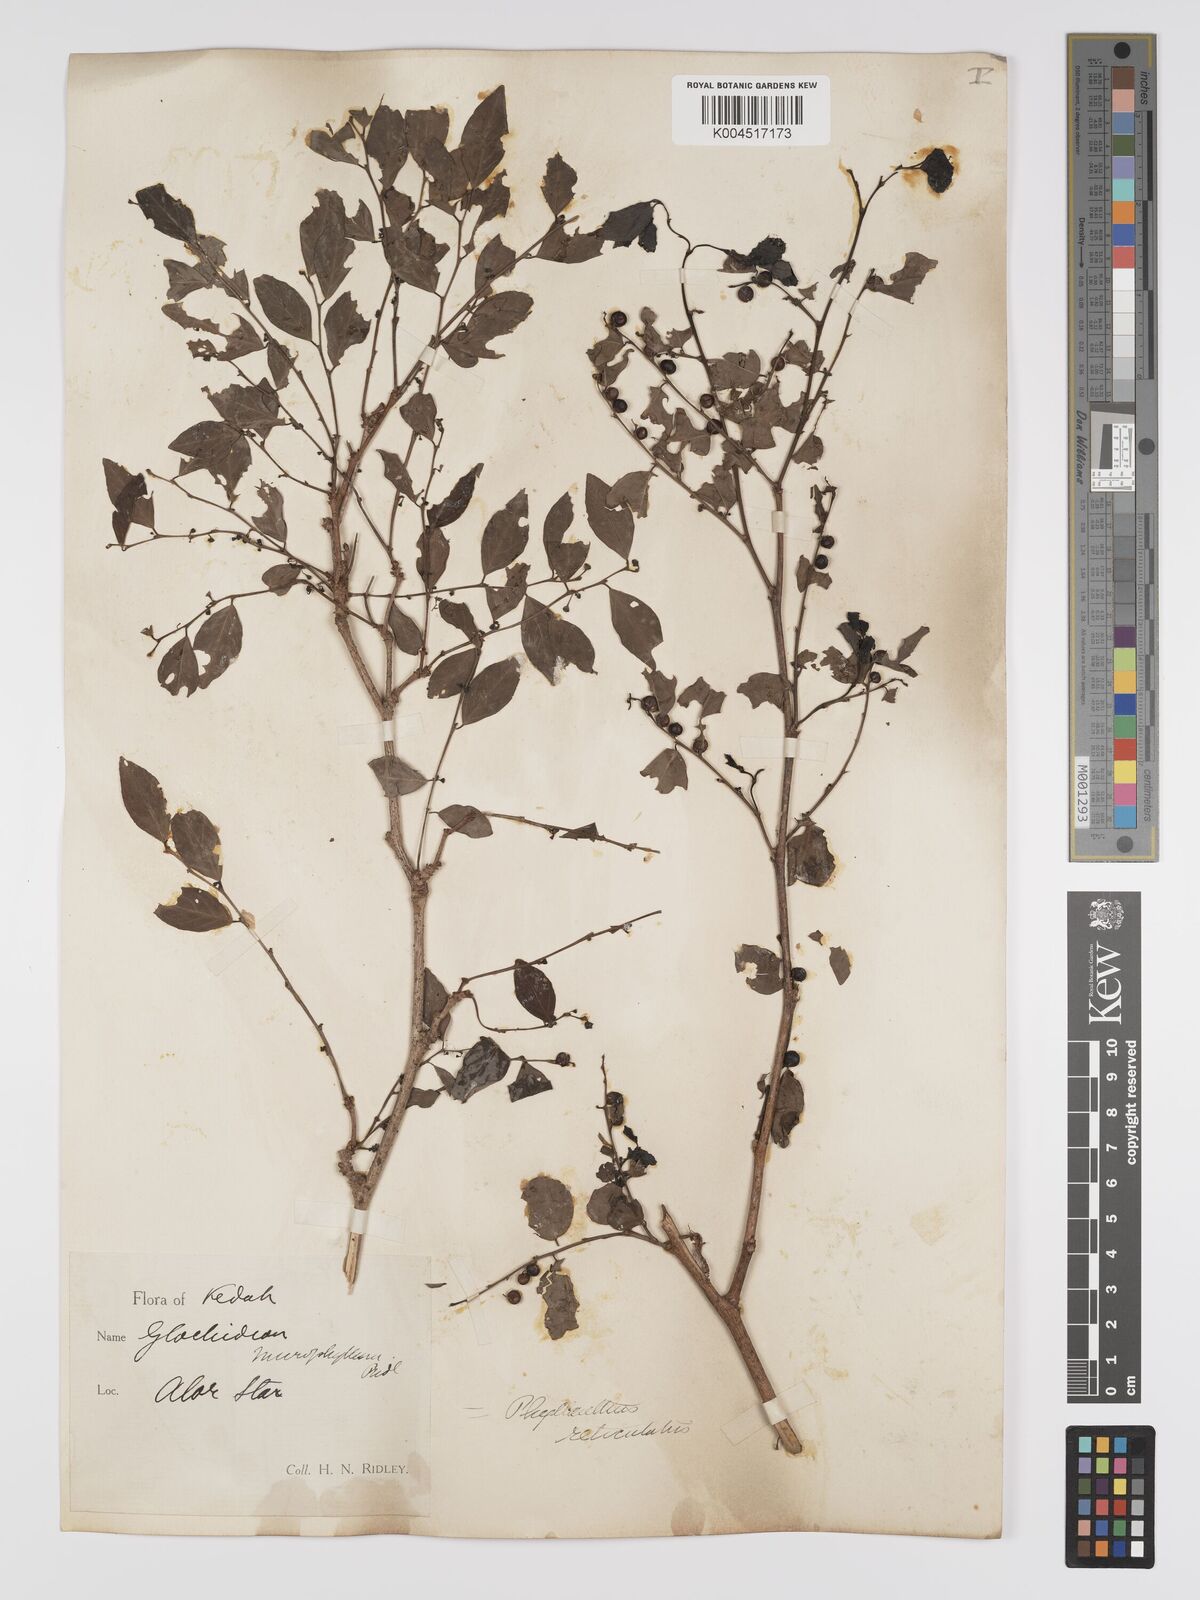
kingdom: Plantae
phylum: Tracheophyta
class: Magnoliopsida
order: Malpighiales
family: Phyllanthaceae
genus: Phyllanthus
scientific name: Phyllanthus microcarpus
